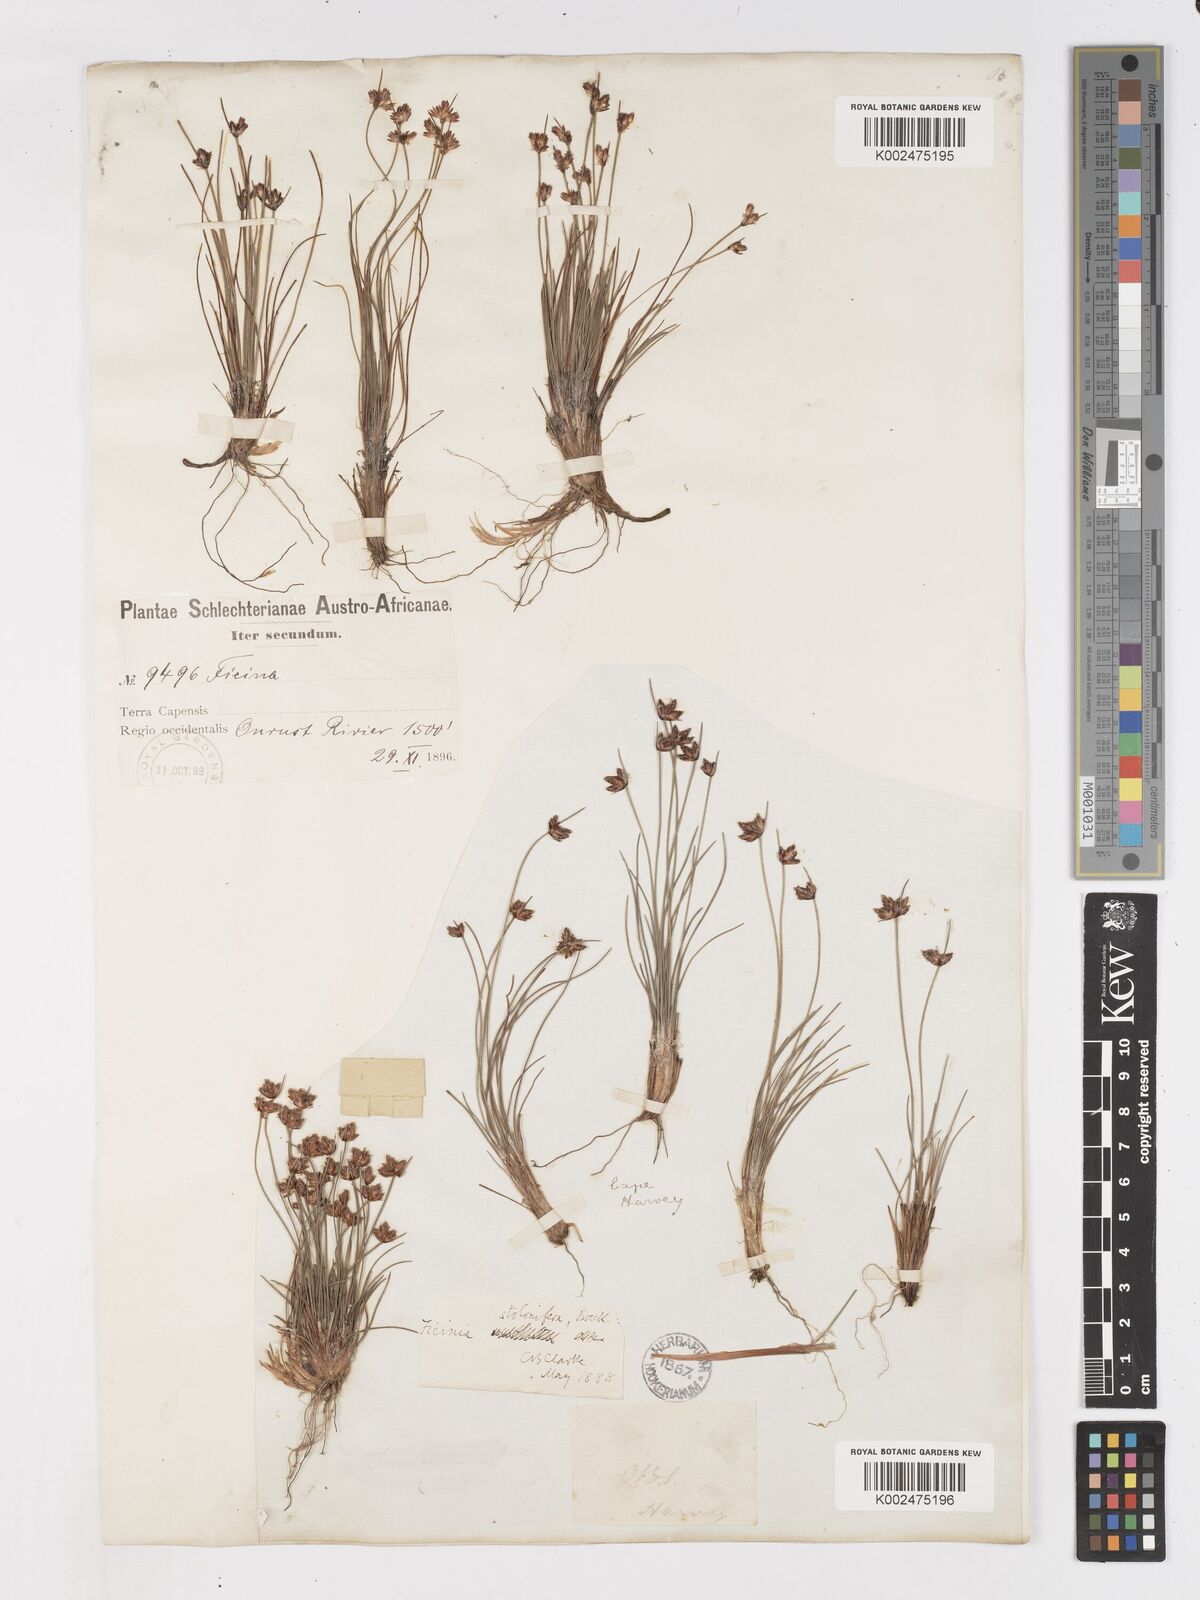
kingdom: Plantae
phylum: Tracheophyta
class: Liliopsida
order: Poales
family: Cyperaceae
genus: Ficinia
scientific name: Ficinia stolonifera
